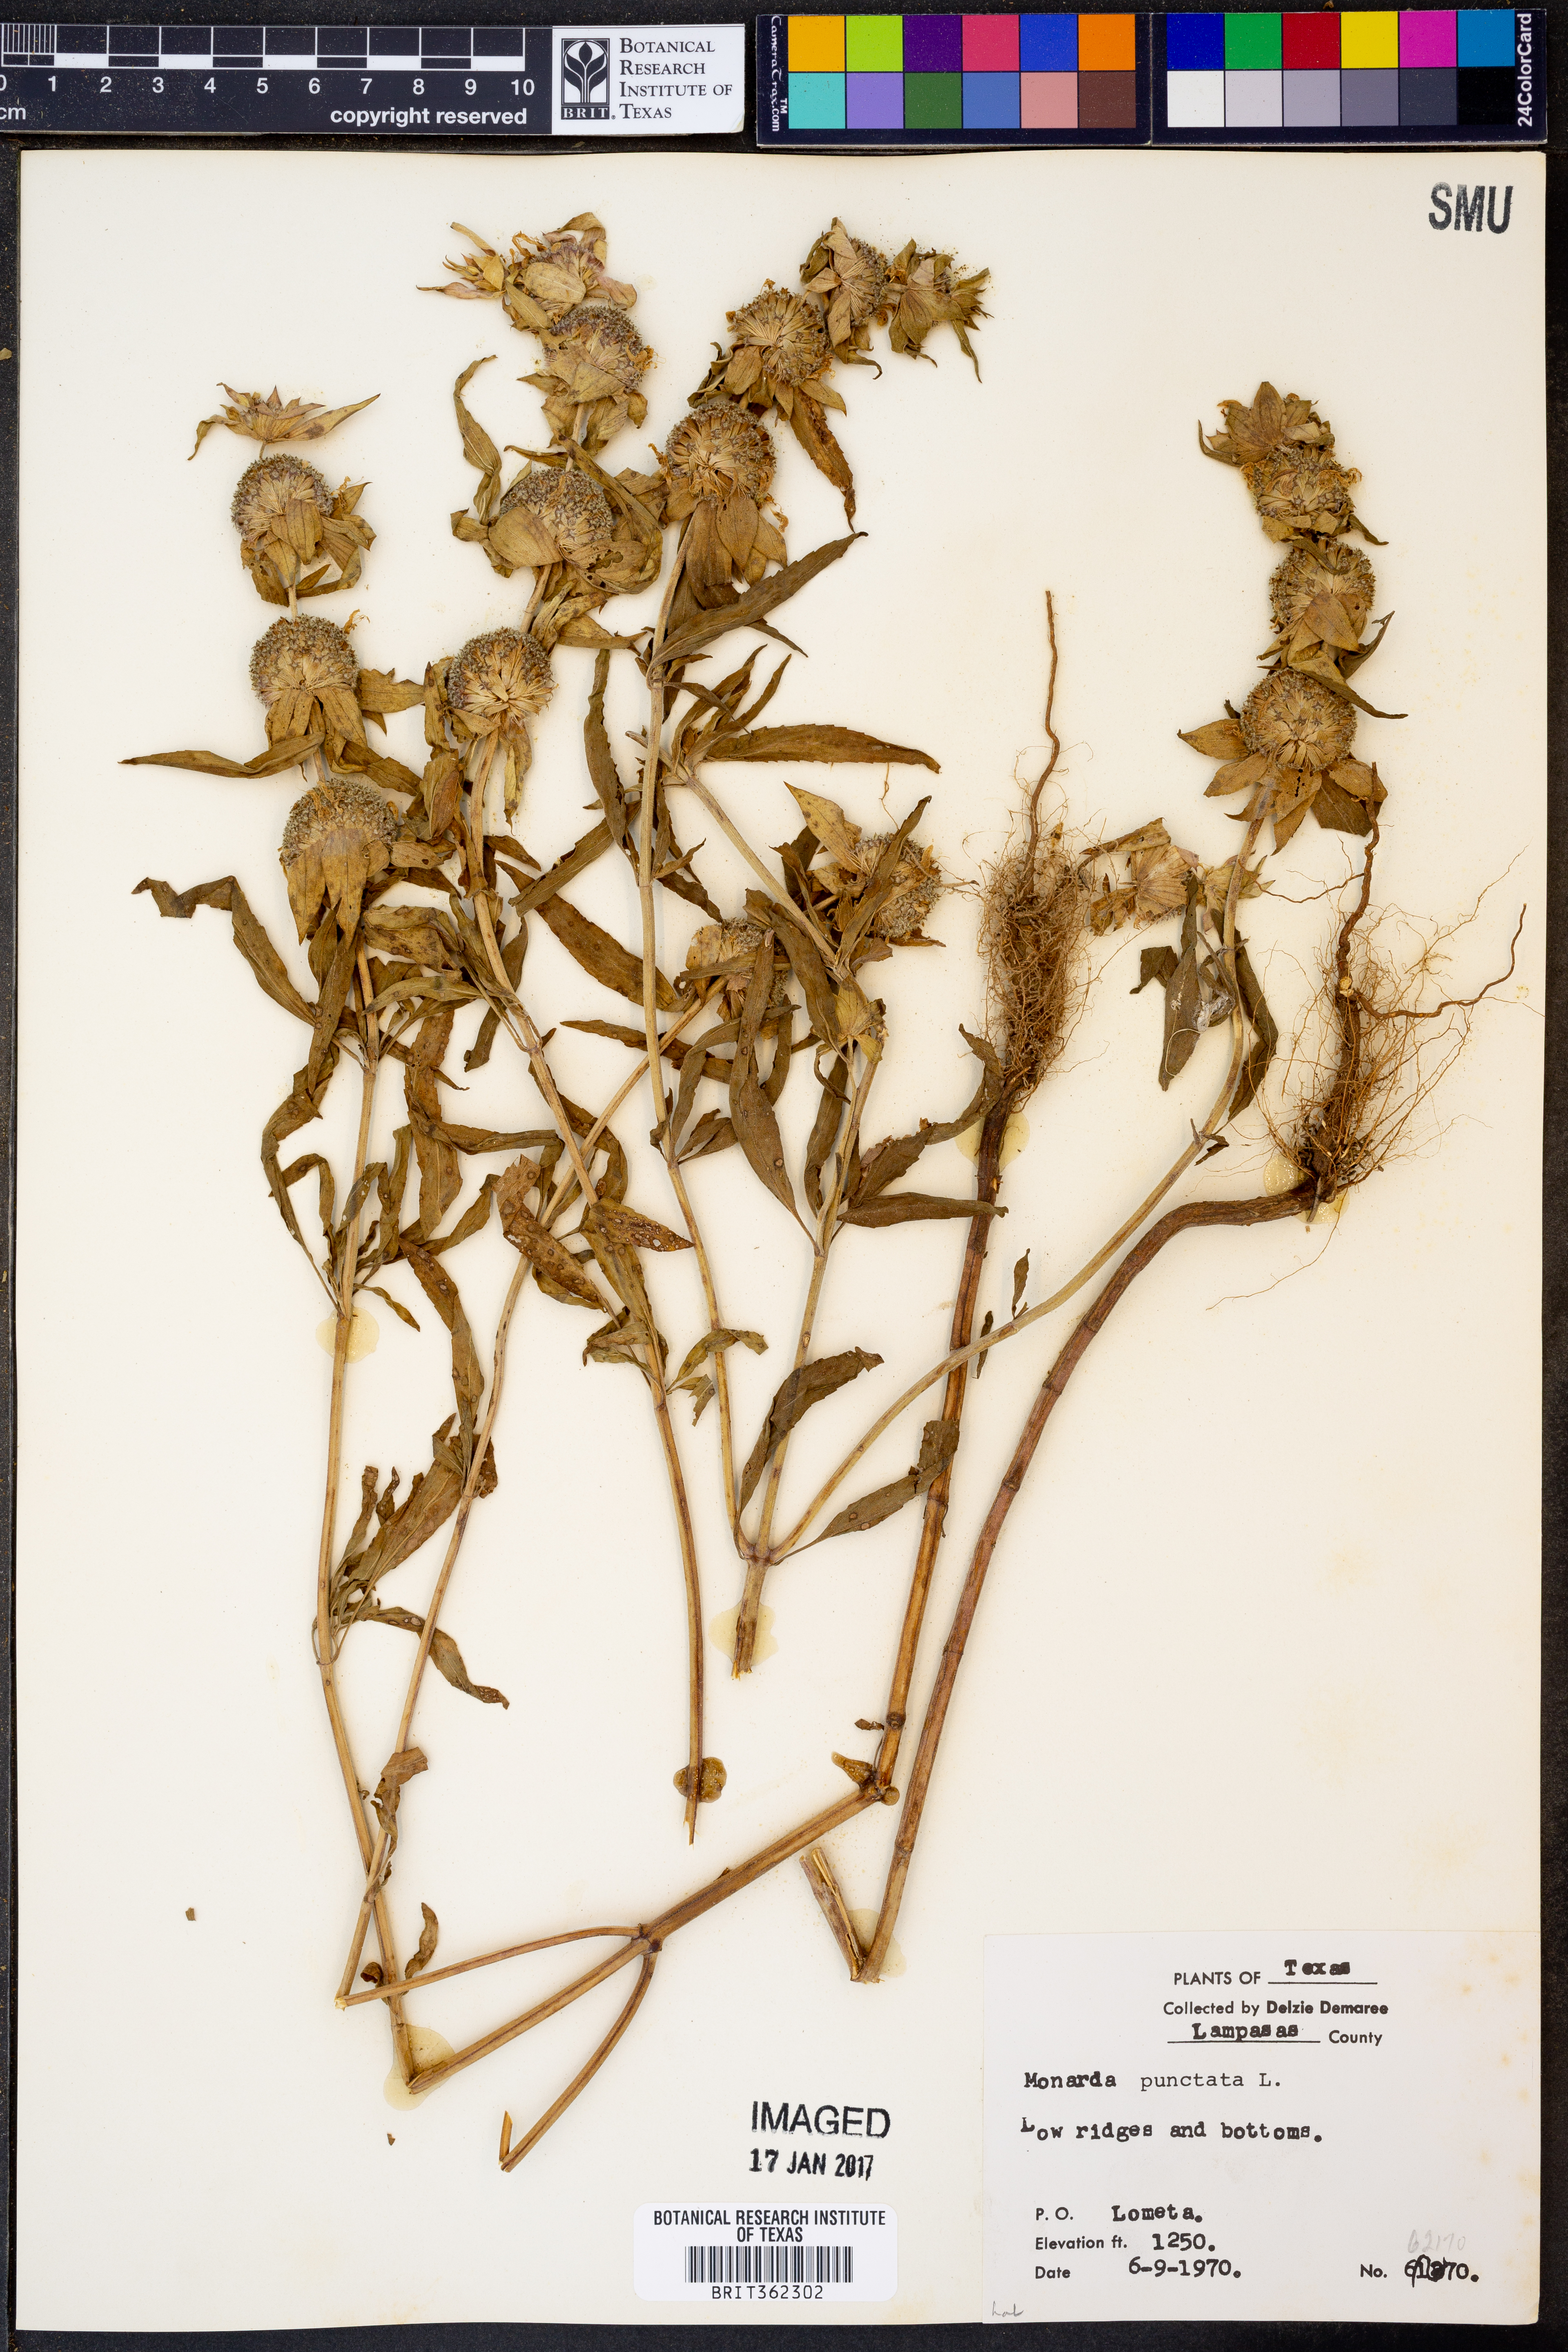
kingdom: Plantae
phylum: Tracheophyta
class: Magnoliopsida
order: Lamiales
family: Lamiaceae
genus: Monarda
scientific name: Monarda punctata
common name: Dotted monarda
